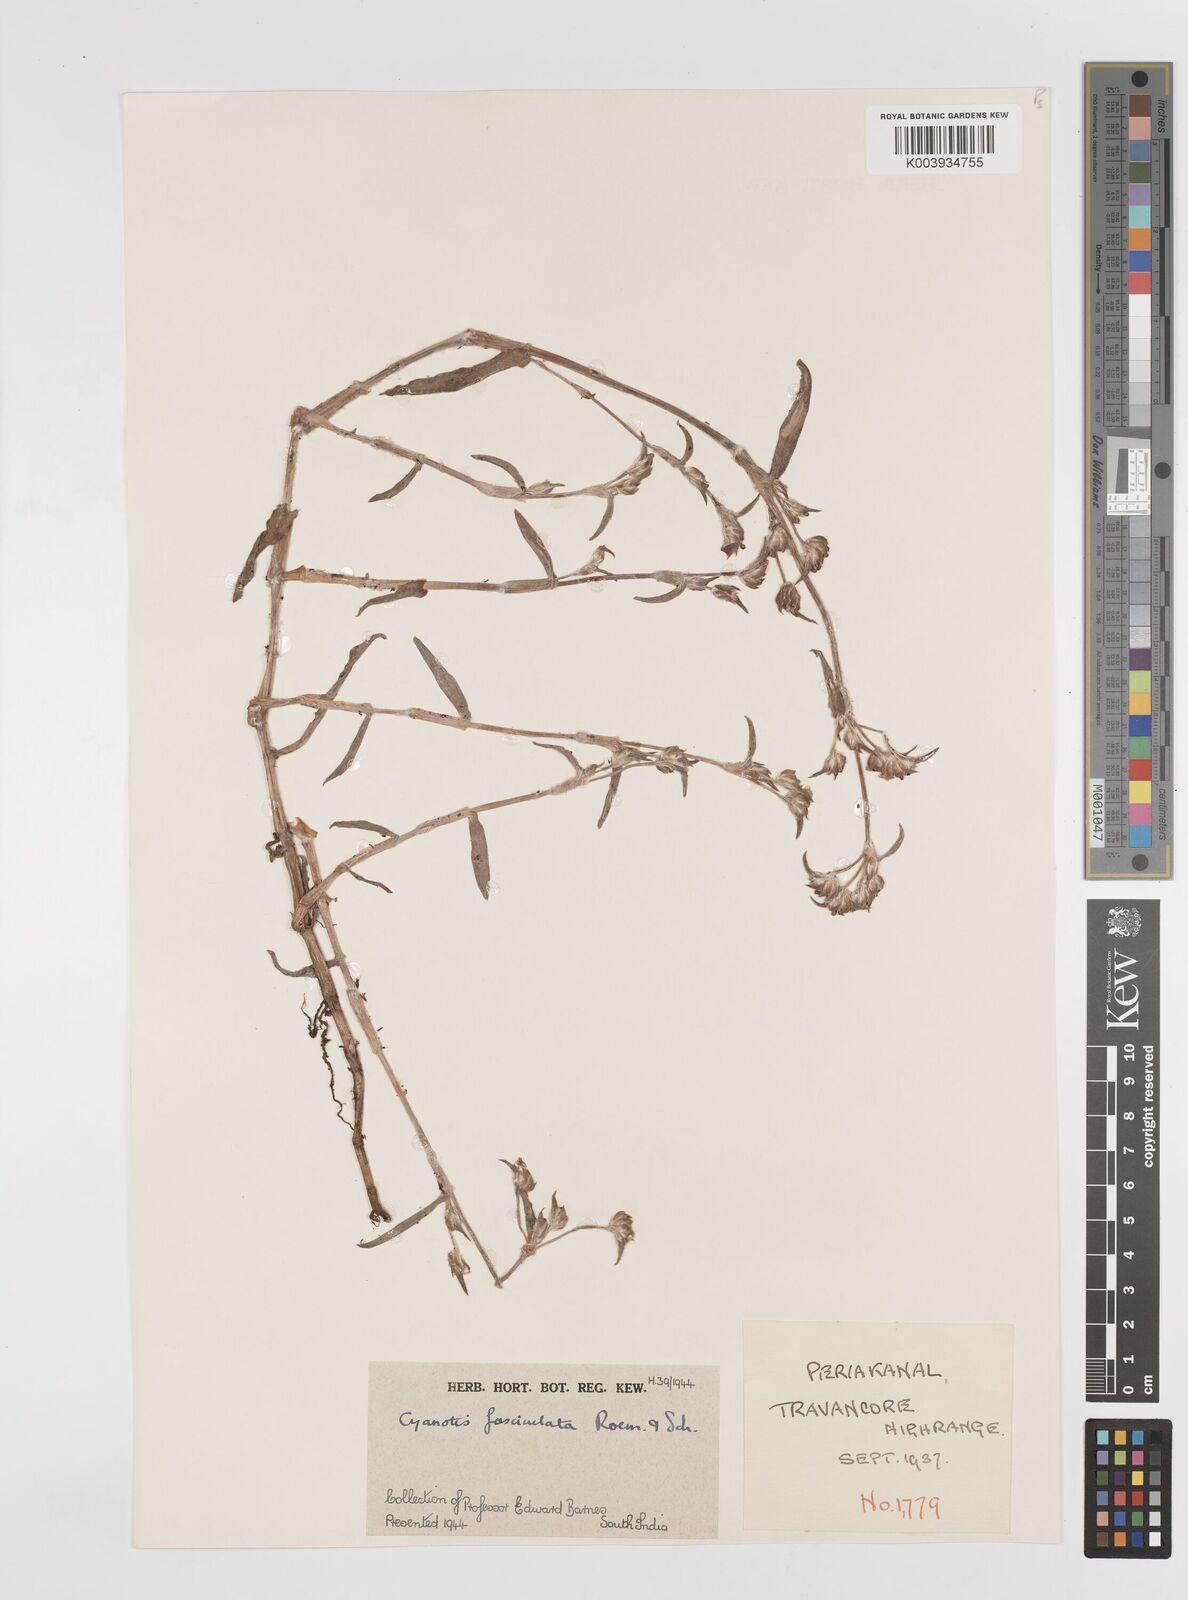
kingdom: Plantae
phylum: Tracheophyta
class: Liliopsida
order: Commelinales
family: Commelinaceae
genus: Cyanotis
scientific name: Cyanotis fasciculata
